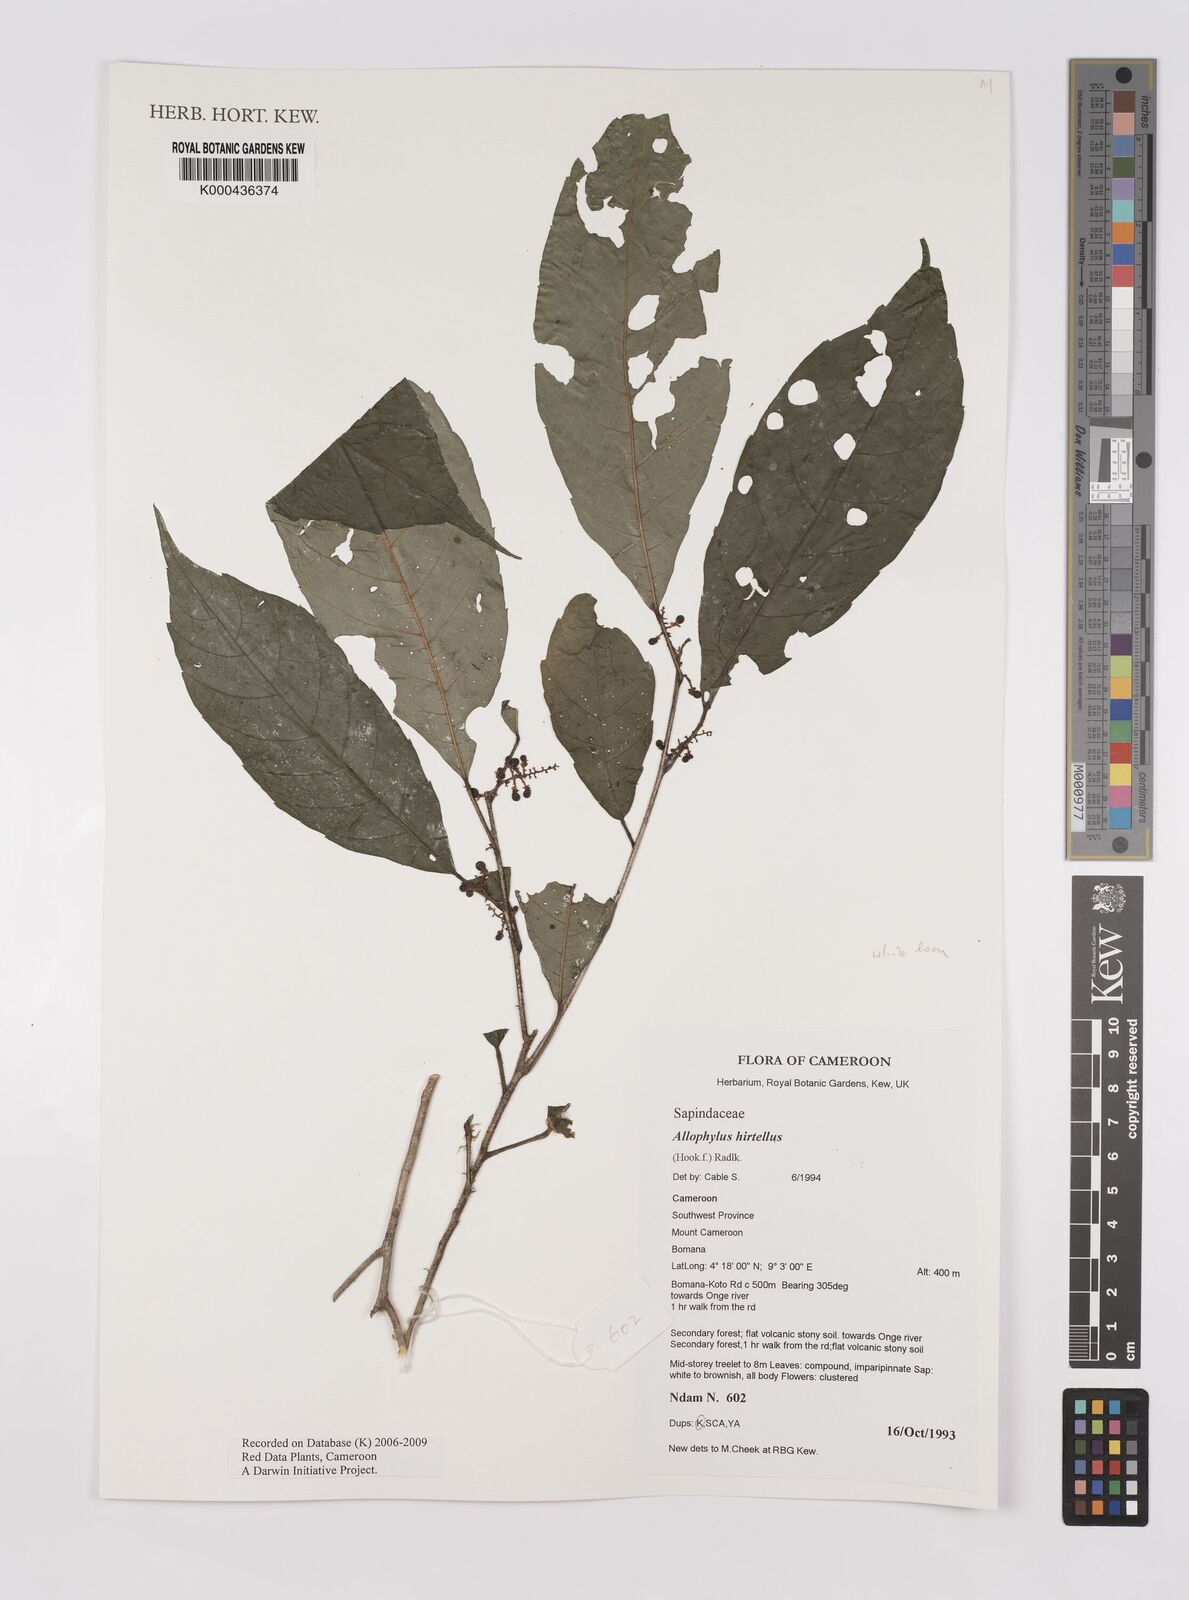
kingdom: Plantae
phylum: Tracheophyta
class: Magnoliopsida
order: Sapindales
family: Sapindaceae
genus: Allophylus
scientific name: Allophylus hirtellus
